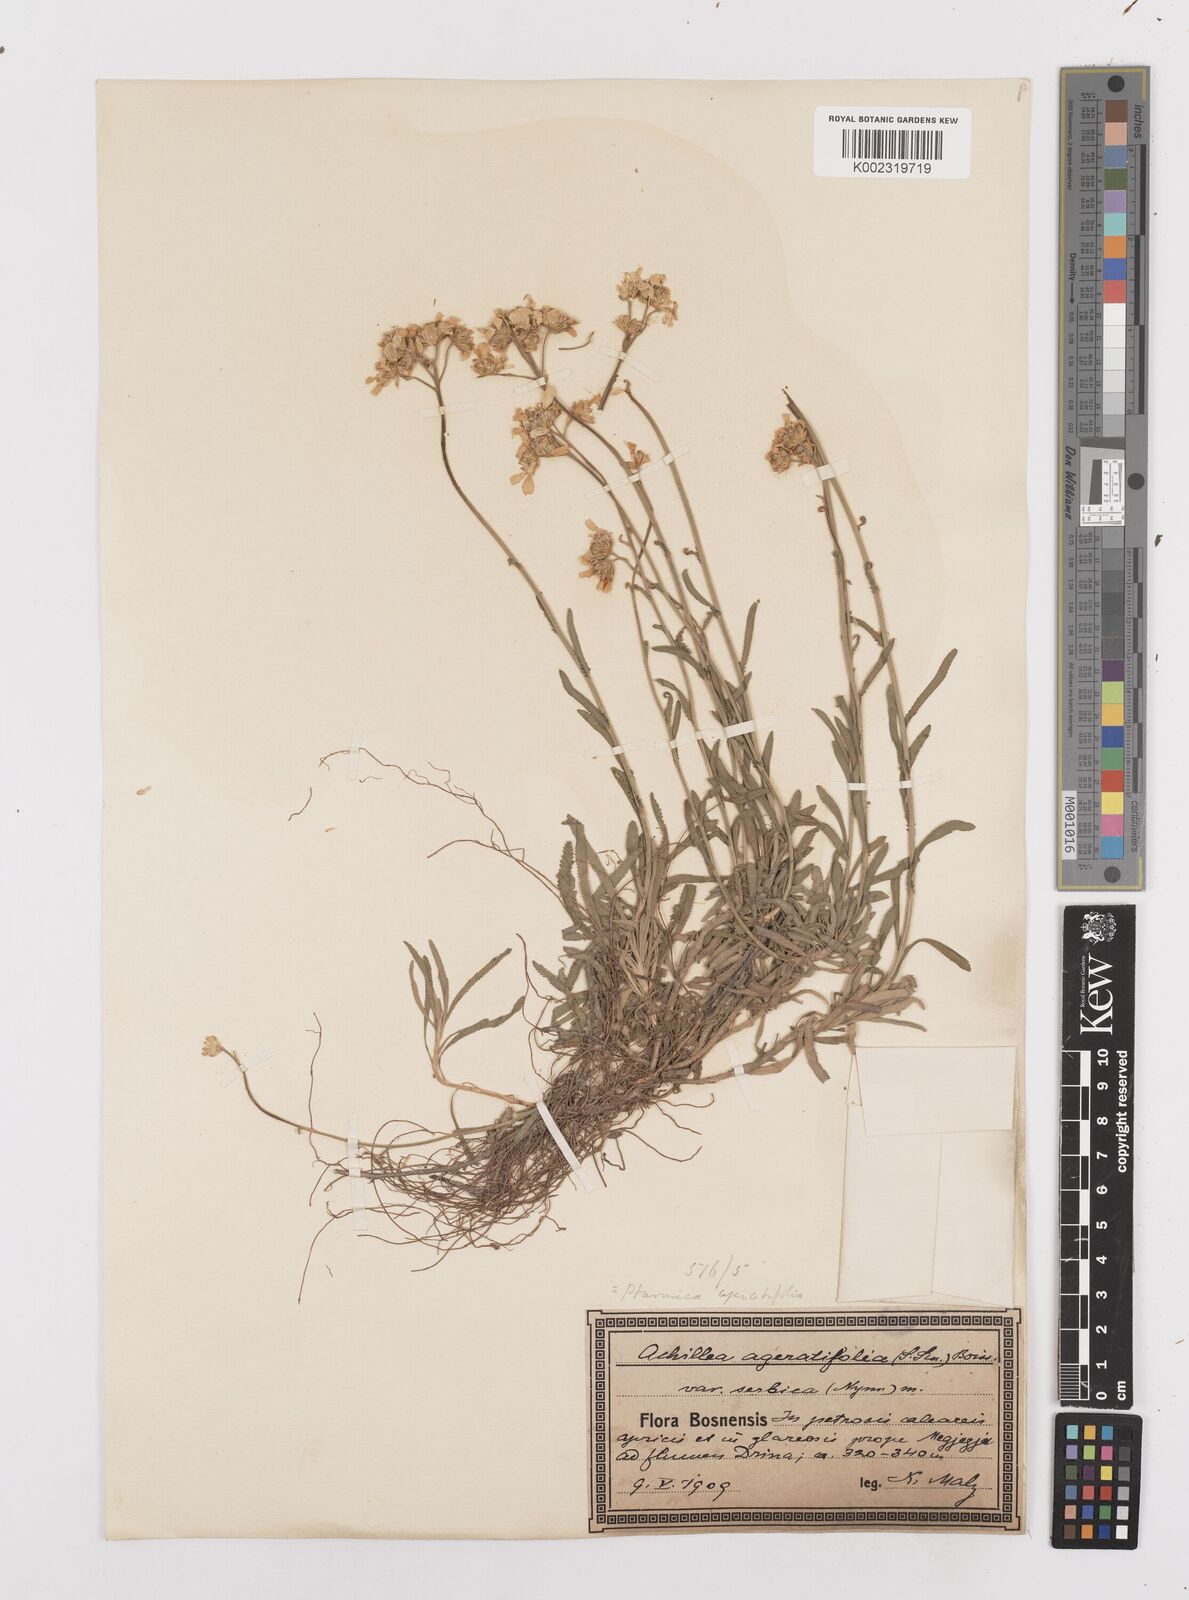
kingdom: Plantae
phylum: Tracheophyta
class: Magnoliopsida
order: Asterales
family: Asteraceae
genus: Achillea
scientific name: Achillea ageratifolia
